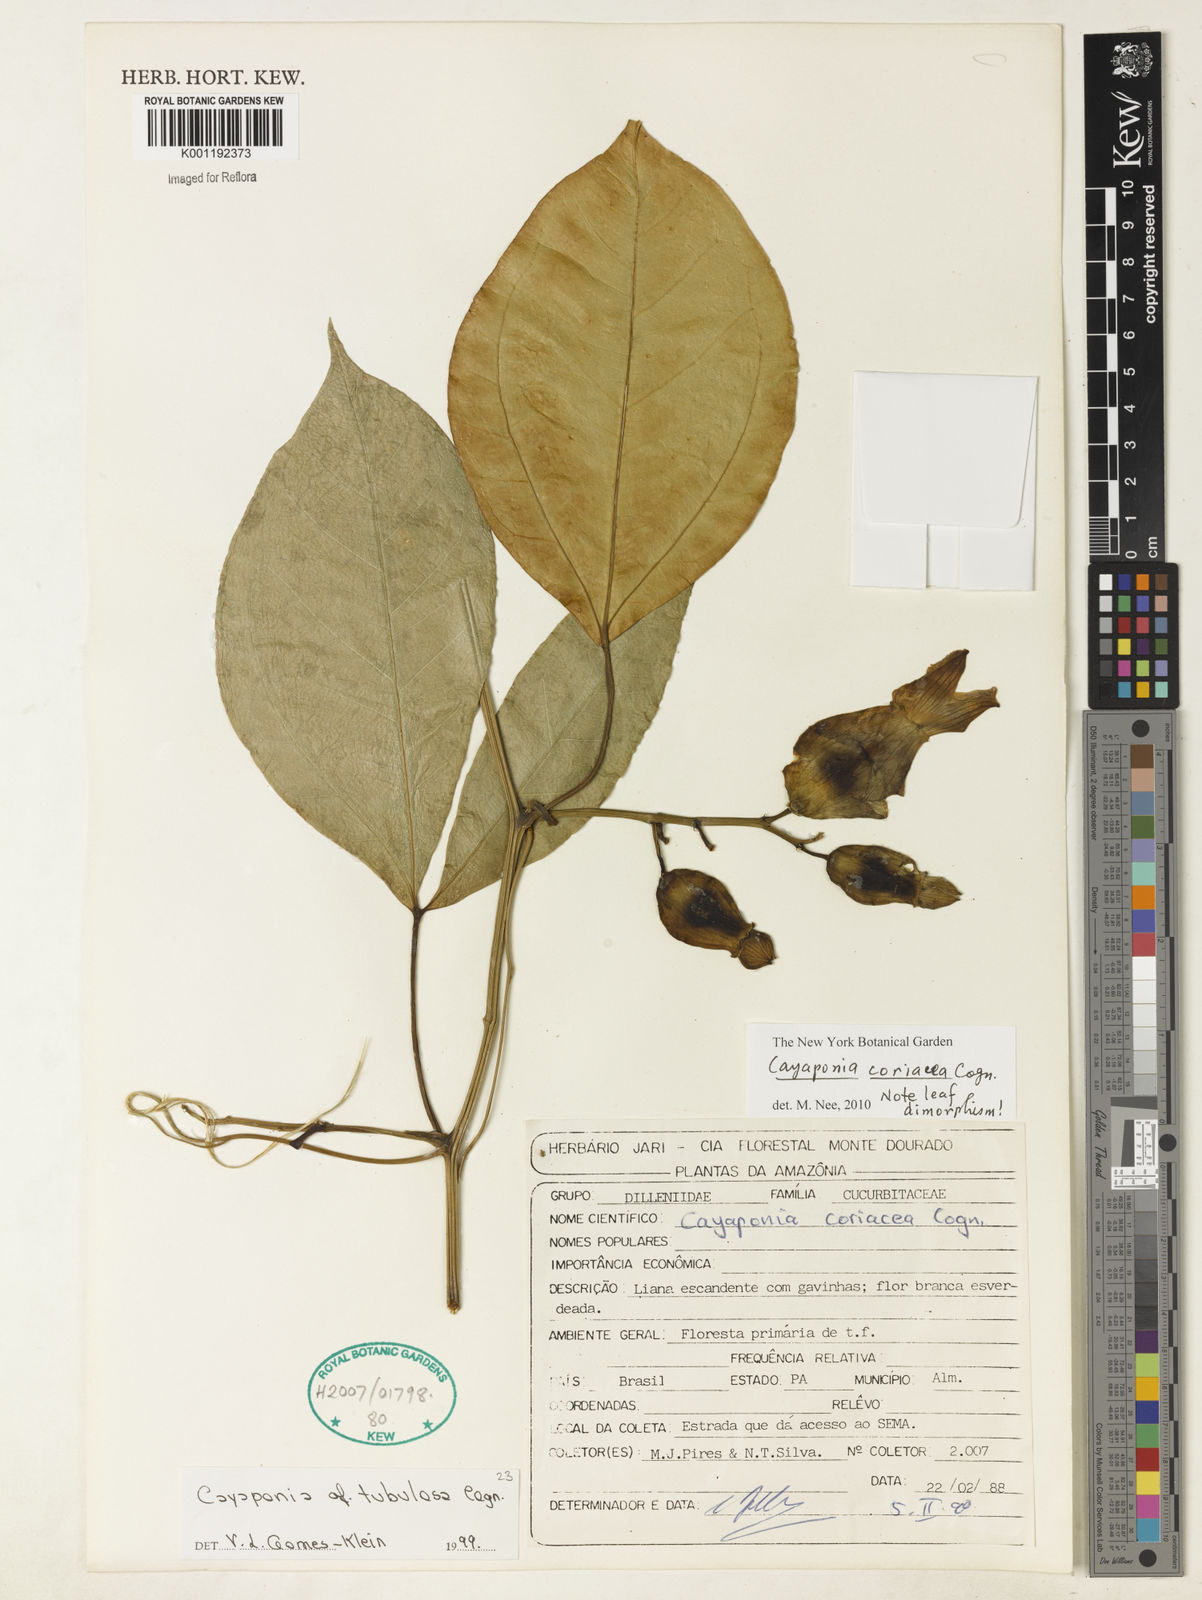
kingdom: Plantae
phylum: Tracheophyta
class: Magnoliopsida
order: Cucurbitales
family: Cucurbitaceae
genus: Cayaponia
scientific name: Cayaponia coriacea
